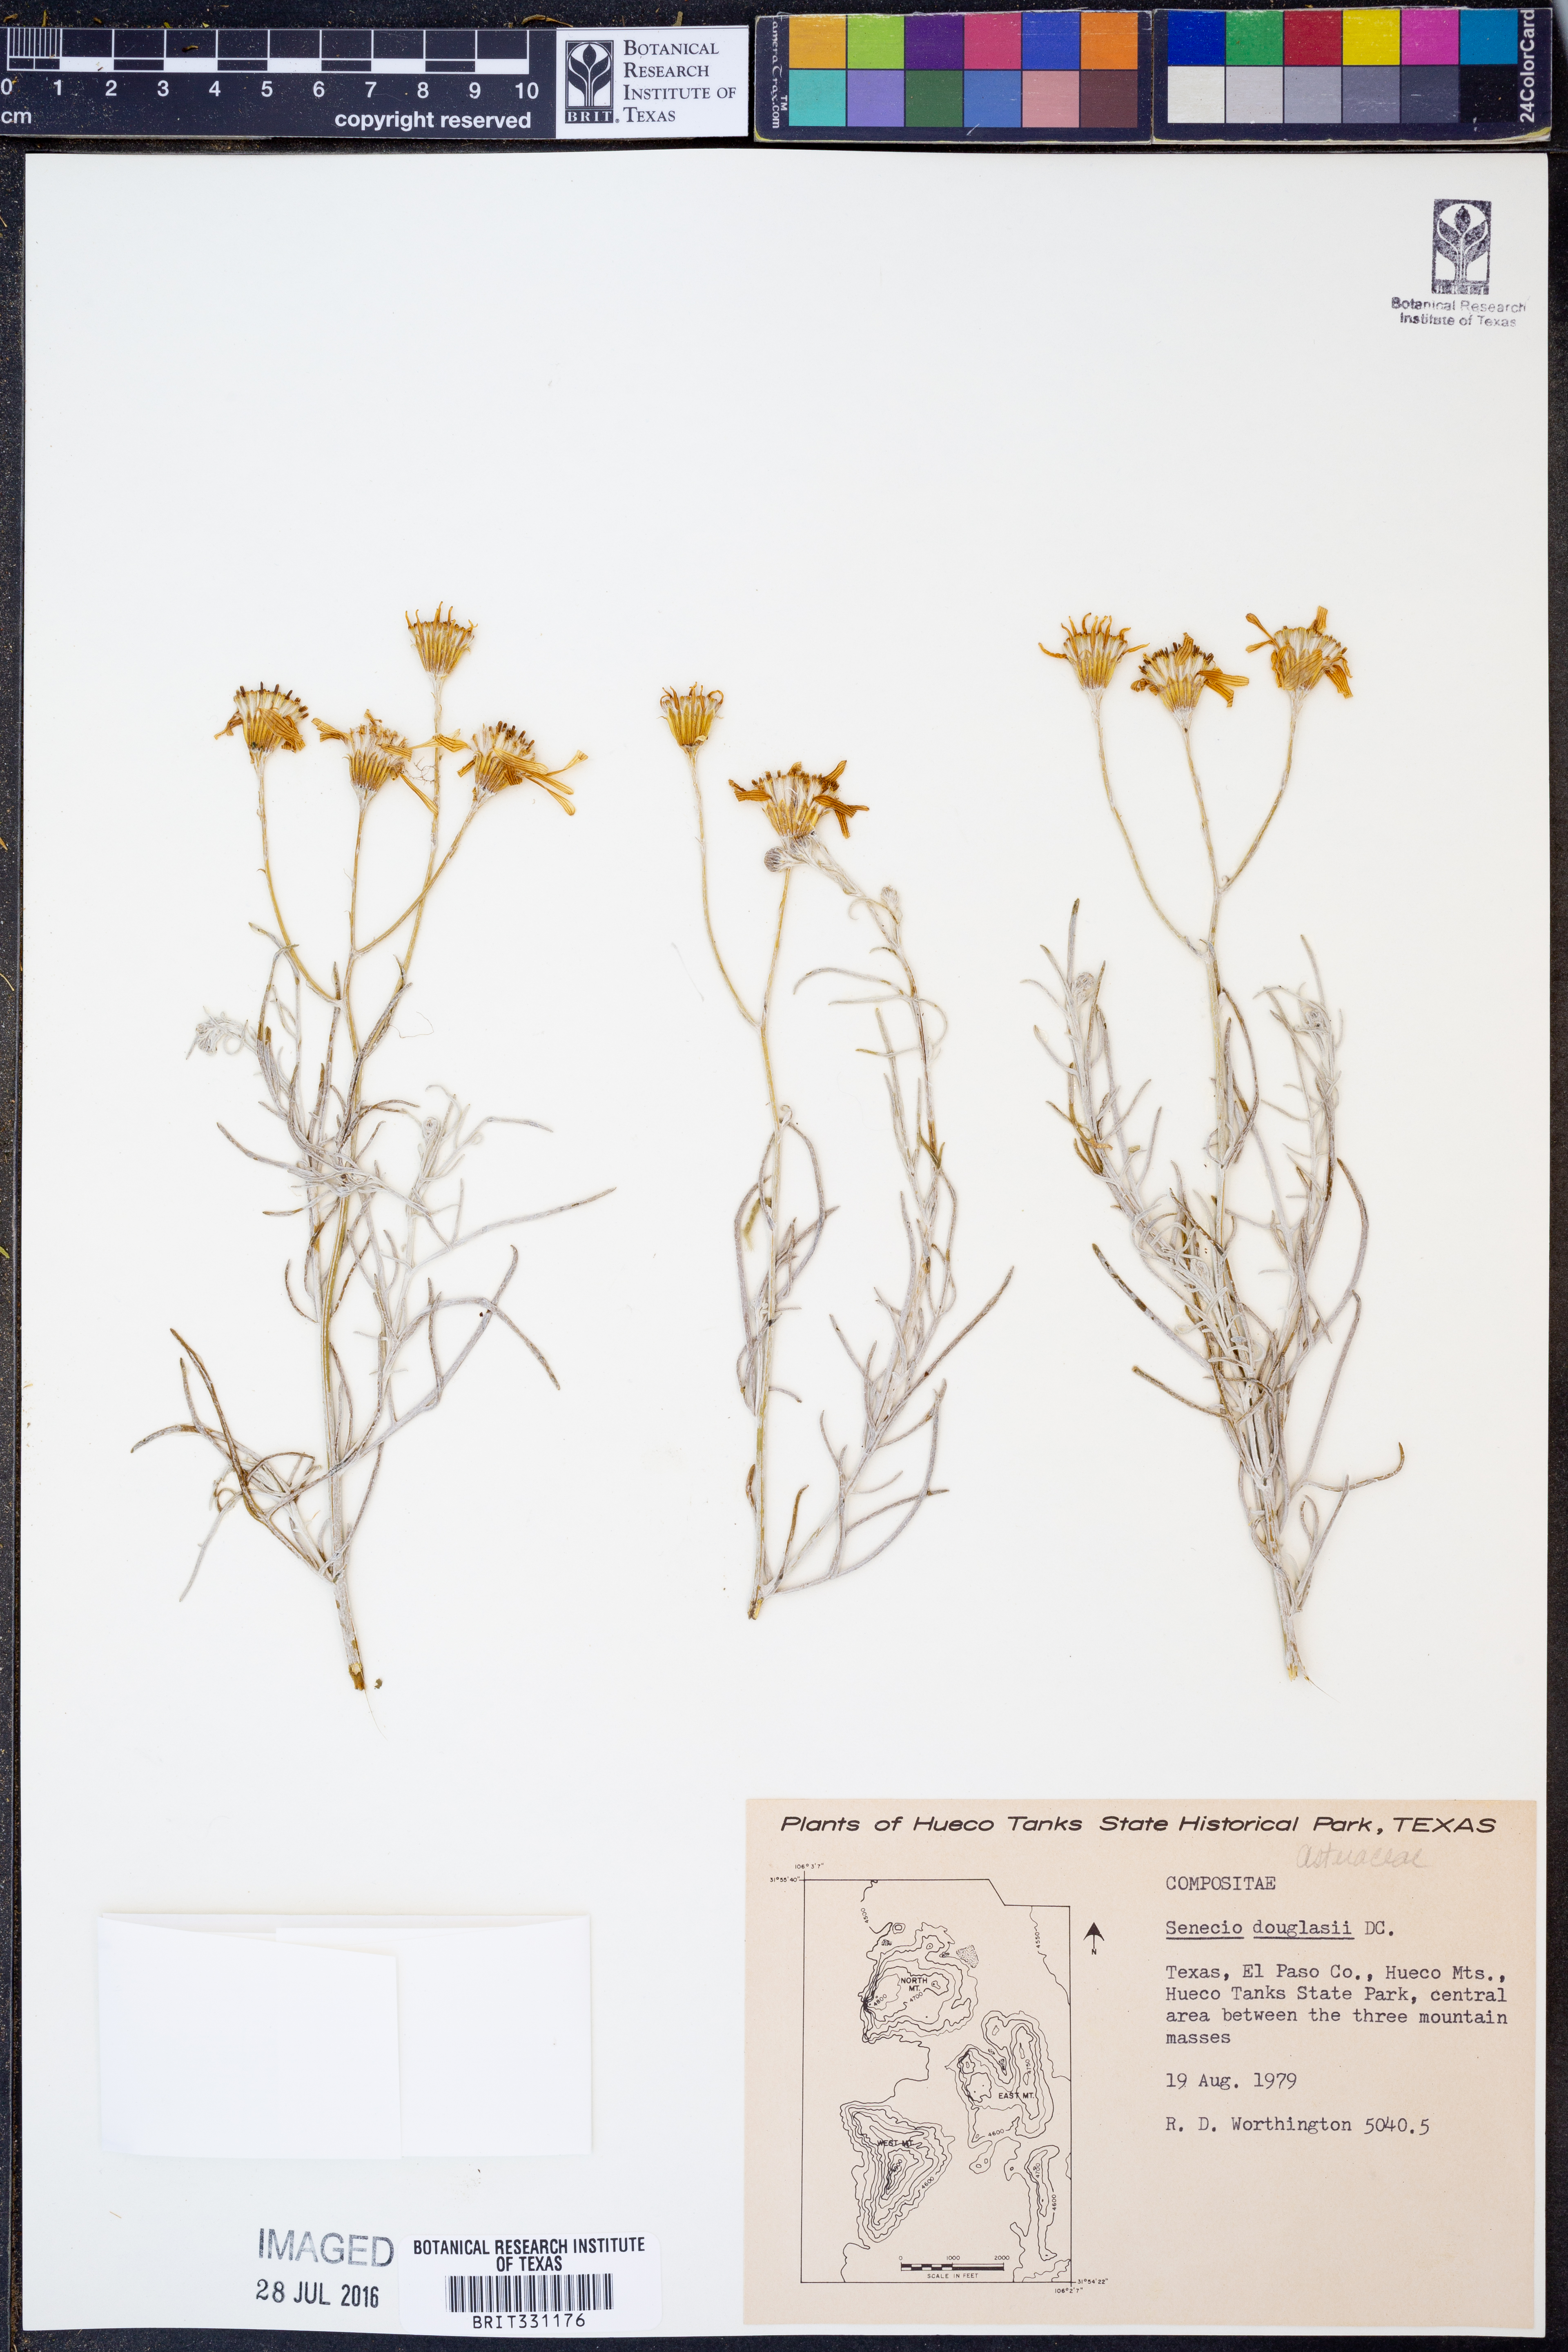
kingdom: Plantae
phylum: Tracheophyta
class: Magnoliopsida
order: Asterales
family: Asteraceae
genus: Senecio
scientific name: Senecio flaccidus
